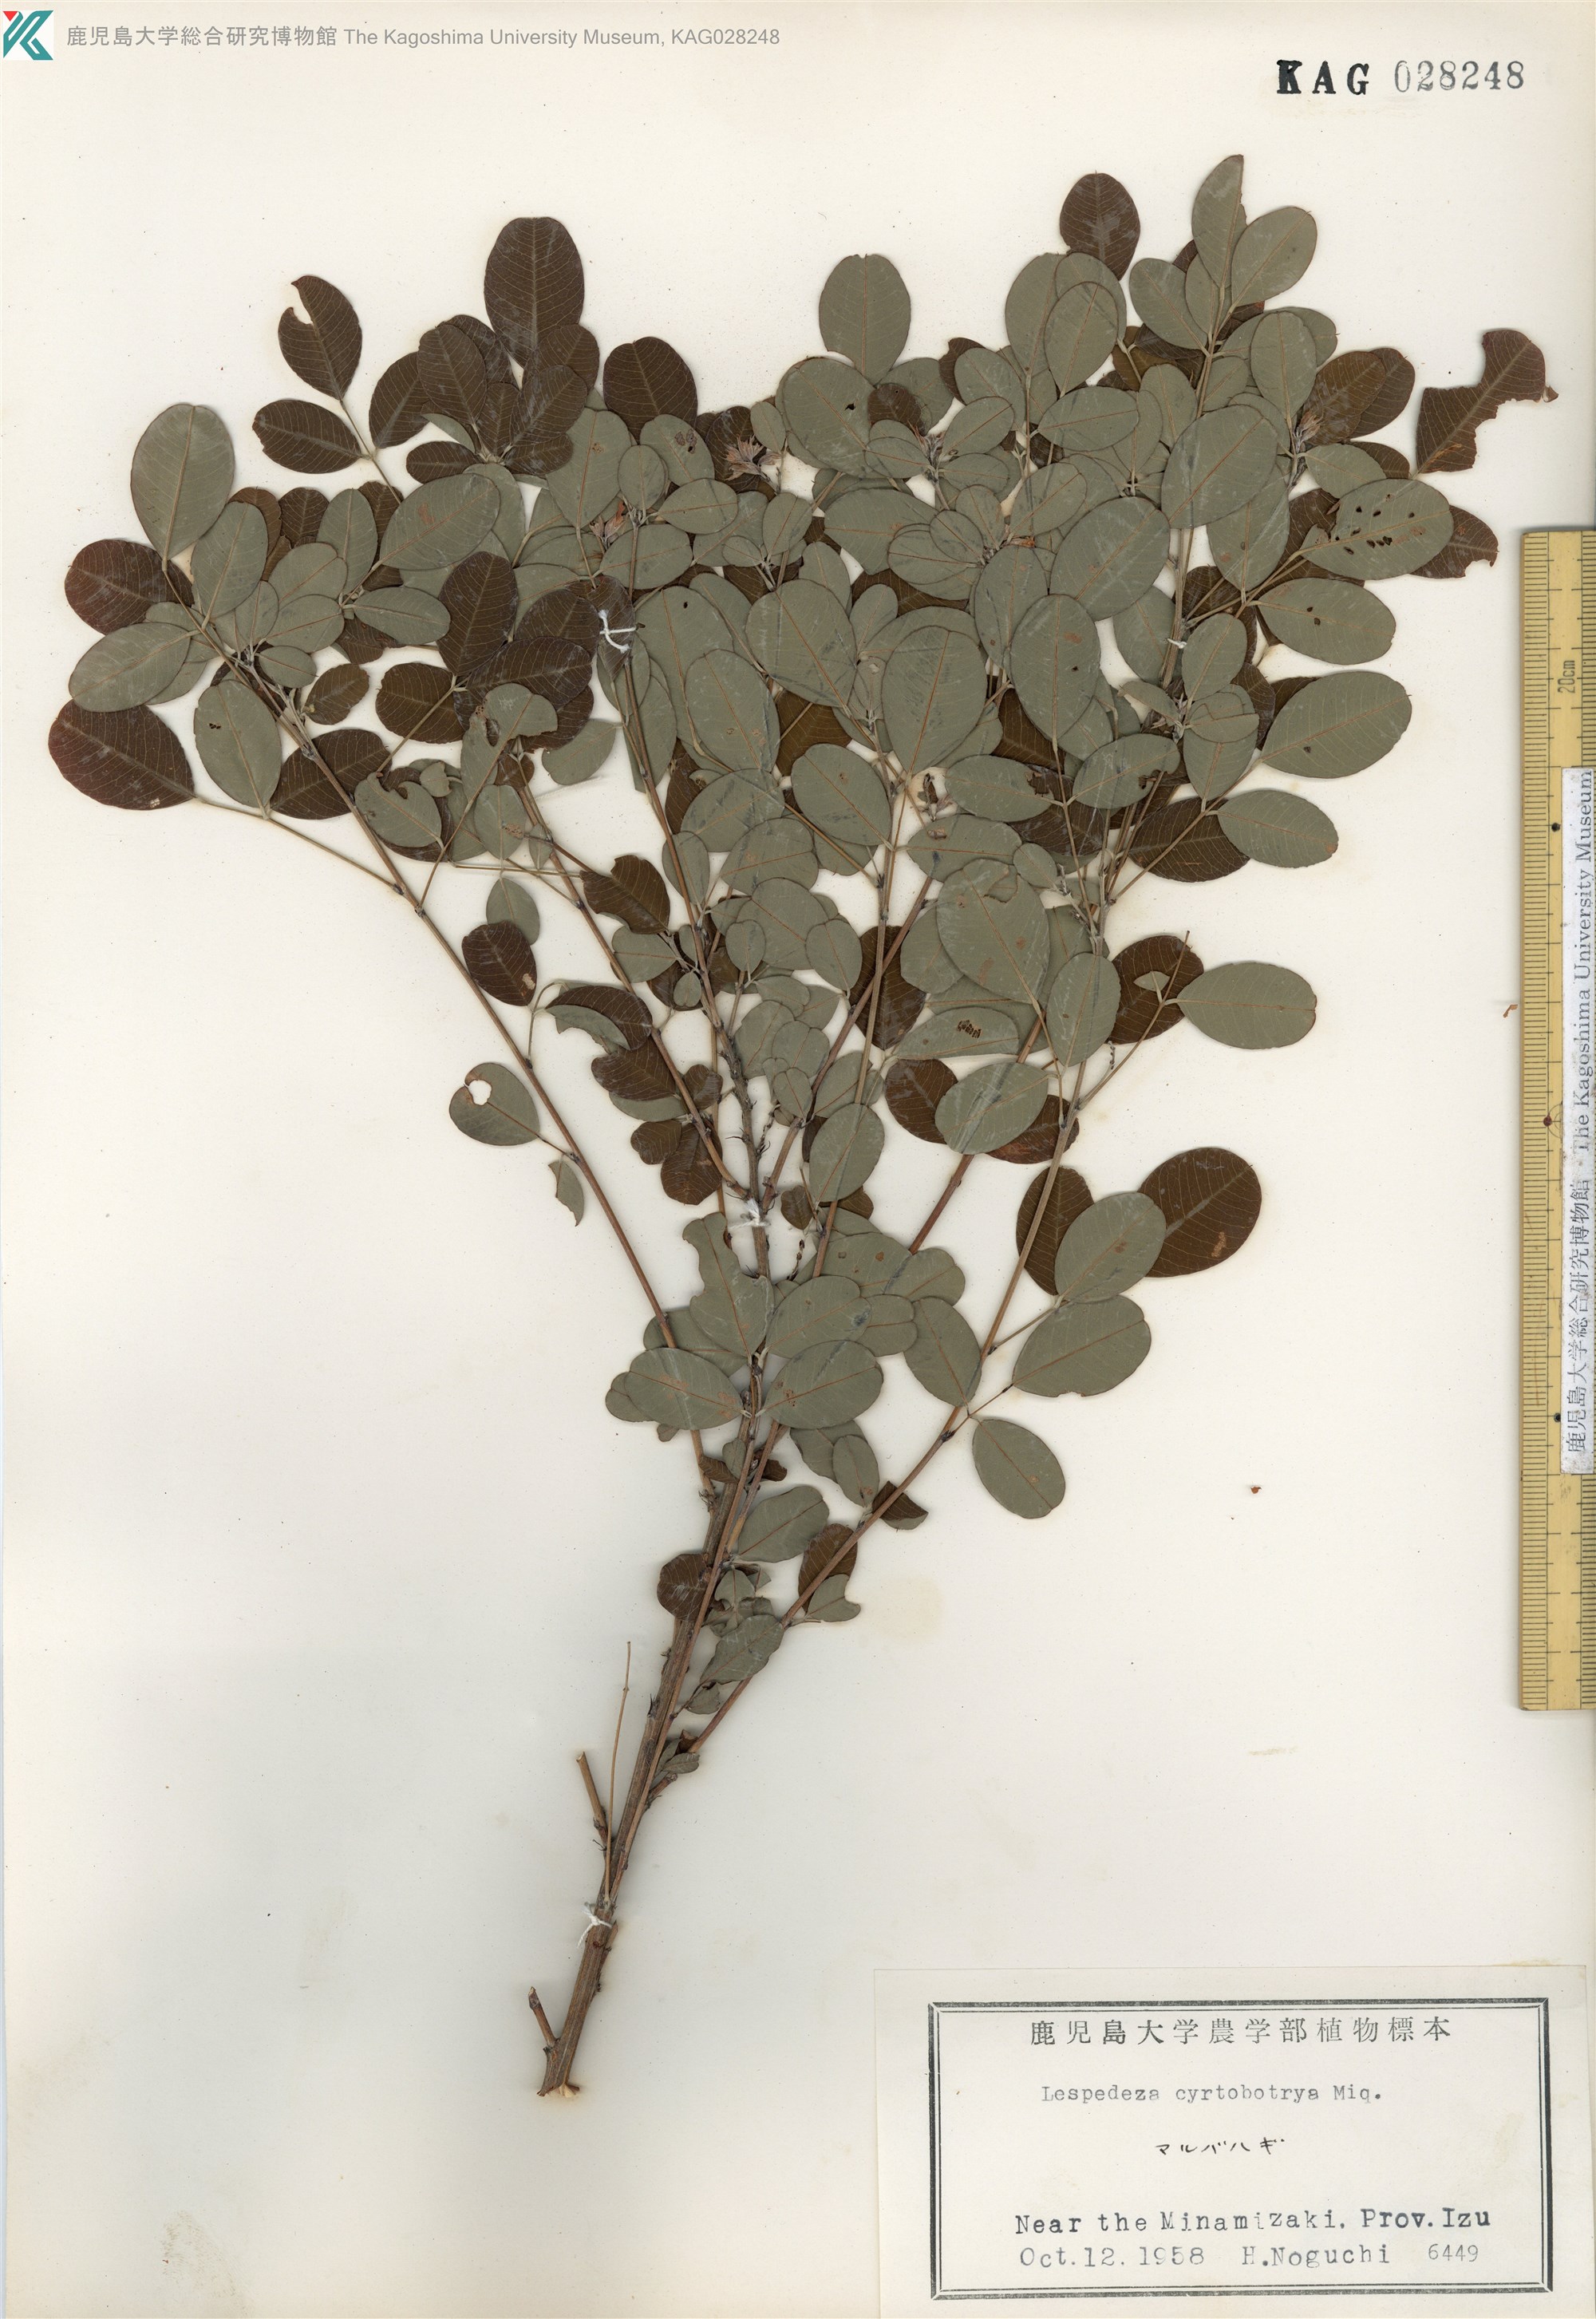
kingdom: Plantae
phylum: Tracheophyta
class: Magnoliopsida
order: Fabales
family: Fabaceae
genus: Lespedeza
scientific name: Lespedeza cyrtobotrya
